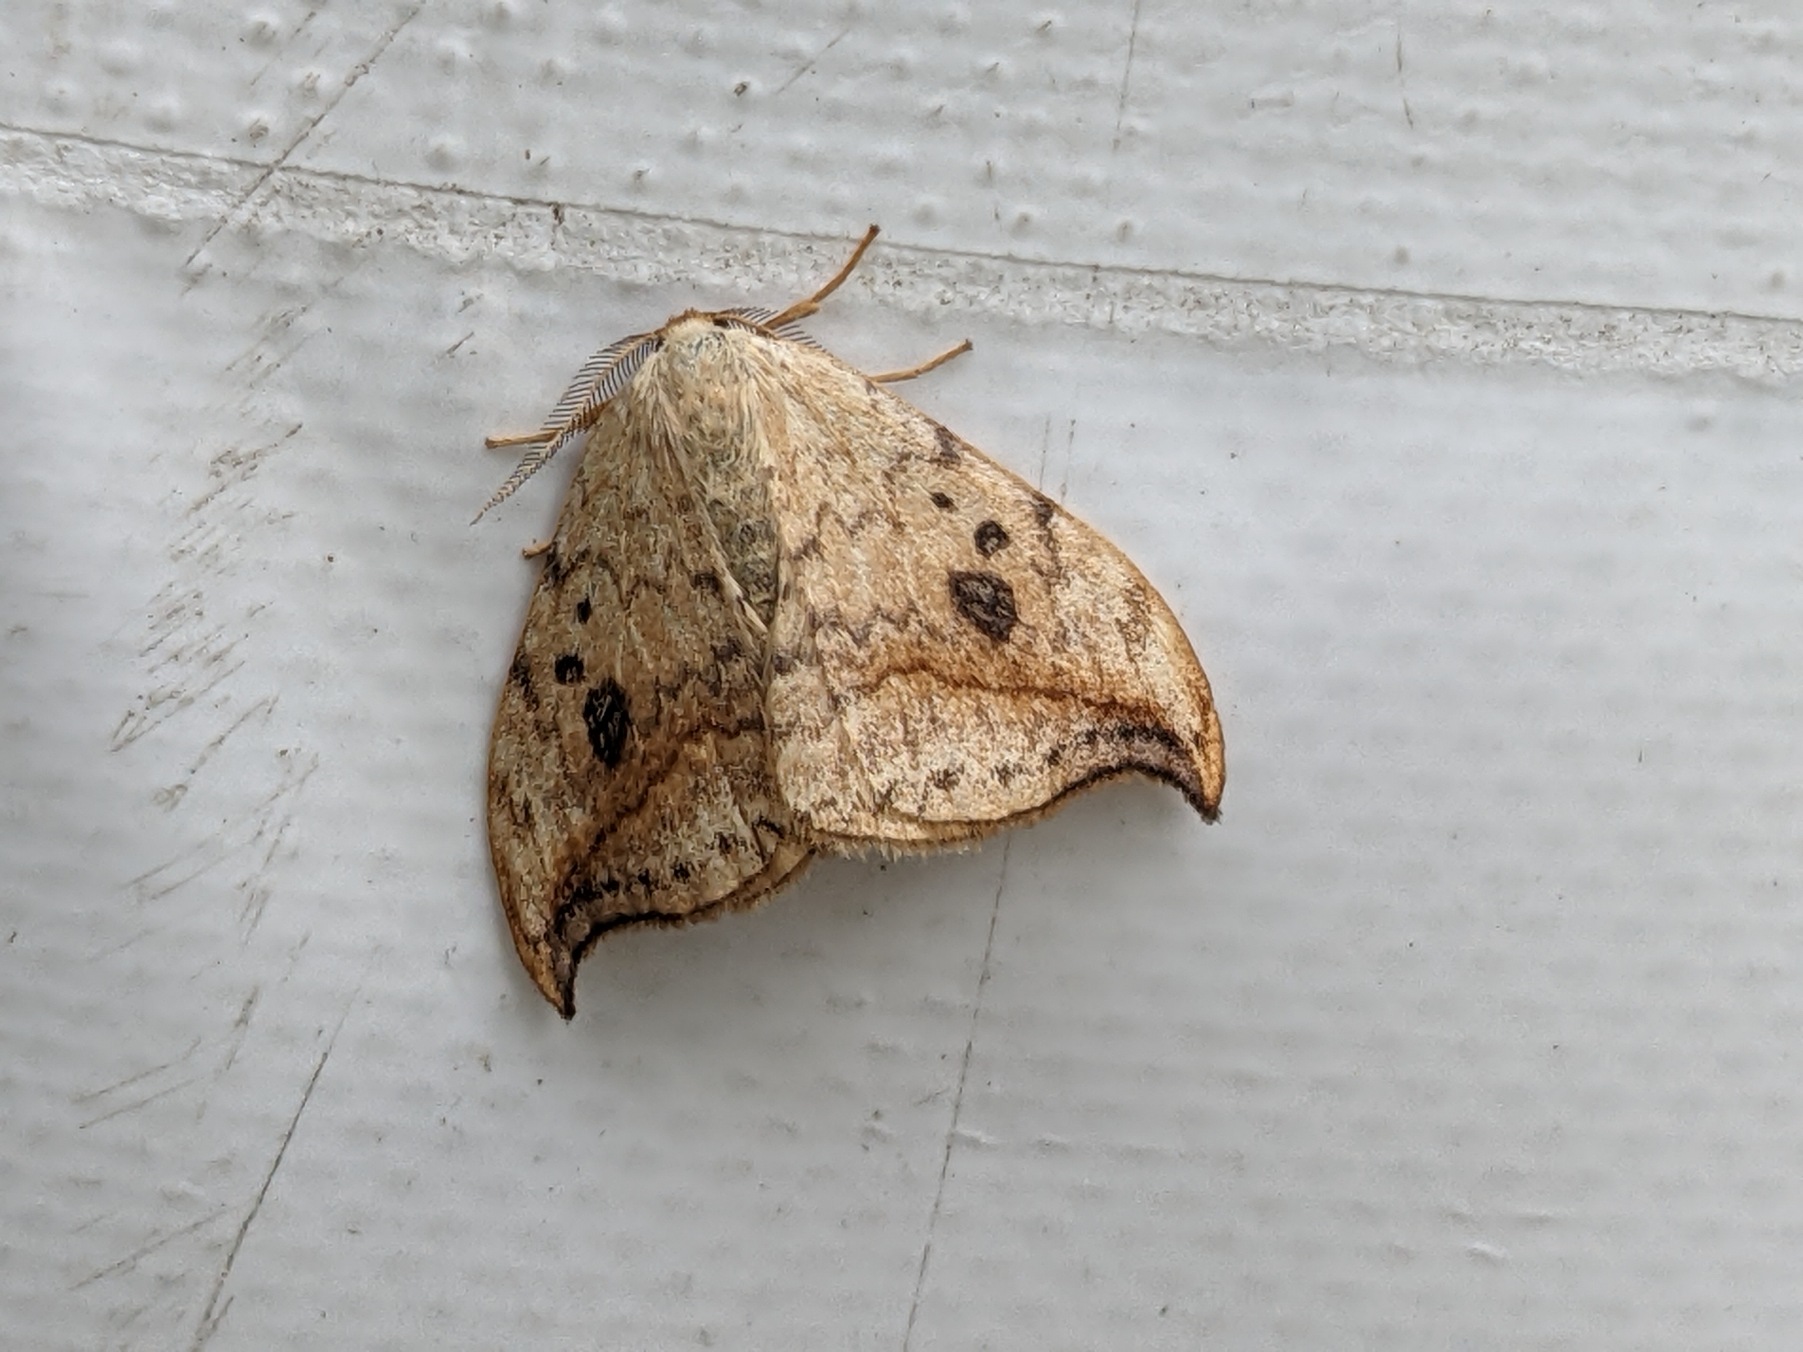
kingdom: Animalia
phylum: Arthropoda
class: Insecta
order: Lepidoptera
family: Drepanidae
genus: Drepana
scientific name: Drepana falcataria
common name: Birkeseglvinge
